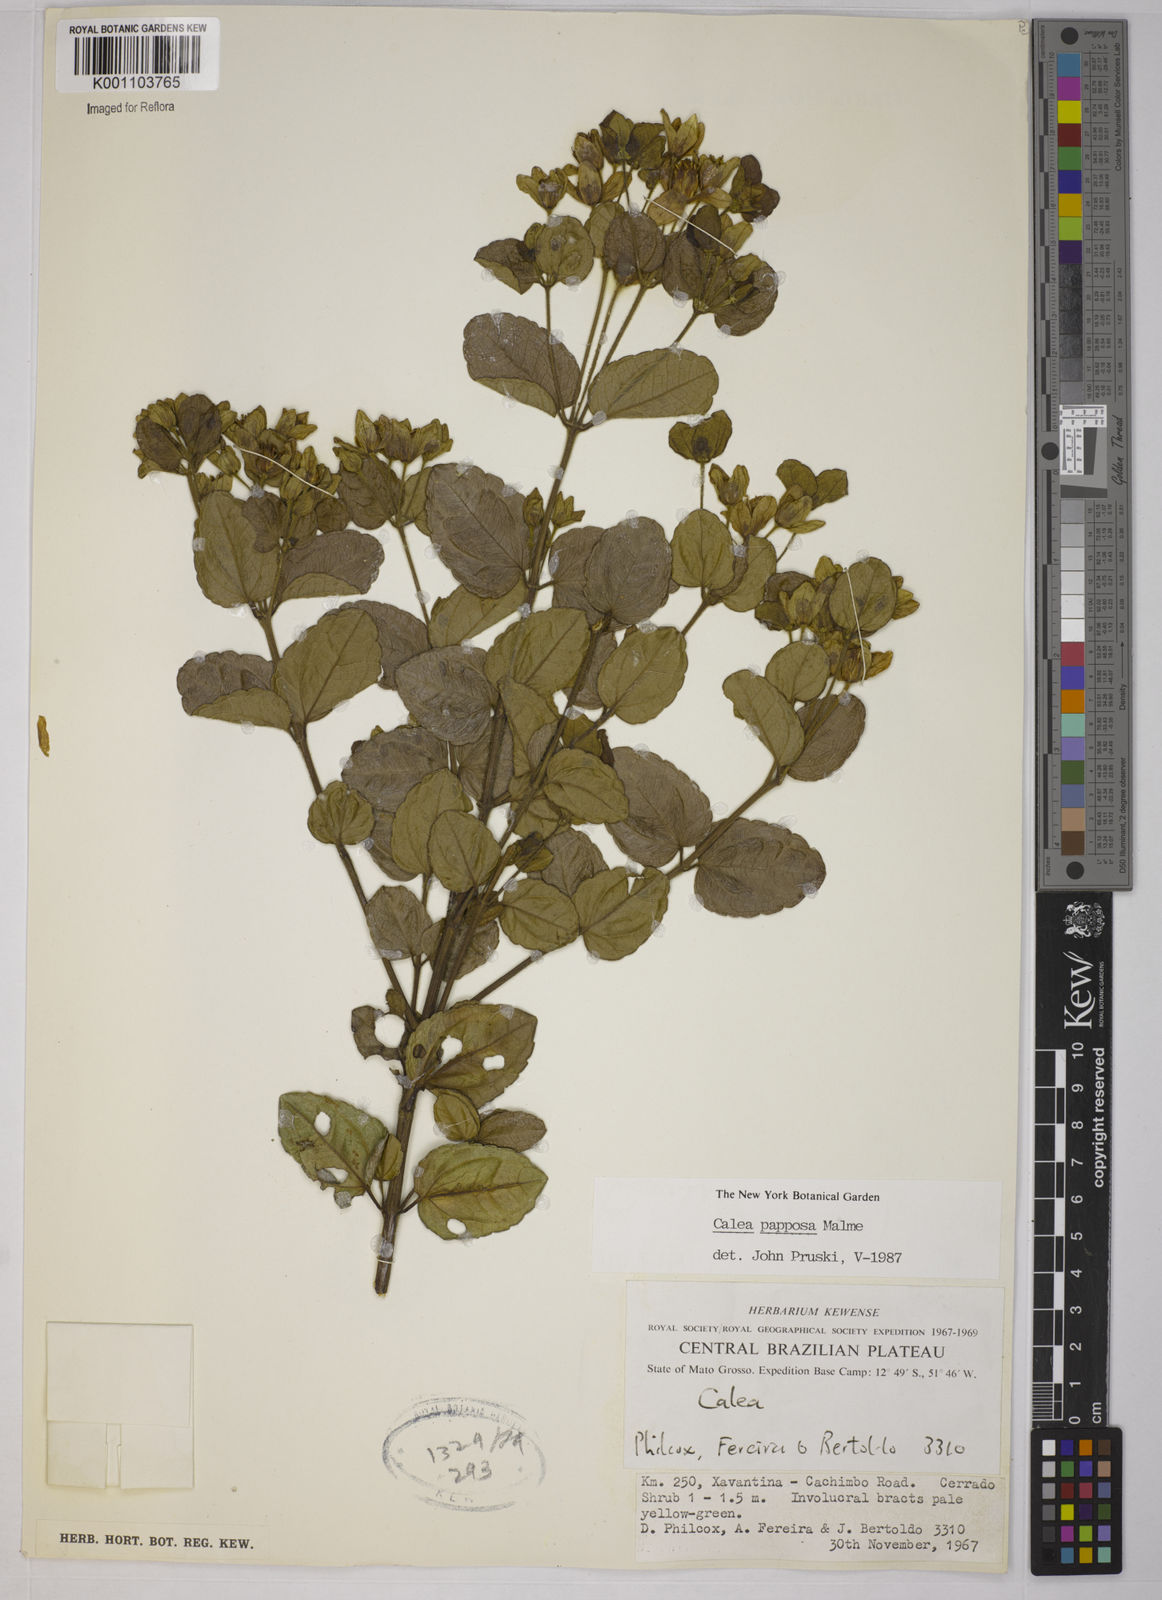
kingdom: Plantae
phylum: Tracheophyta
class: Magnoliopsida
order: Asterales
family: Asteraceae
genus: Calea
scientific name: Calea papposa
